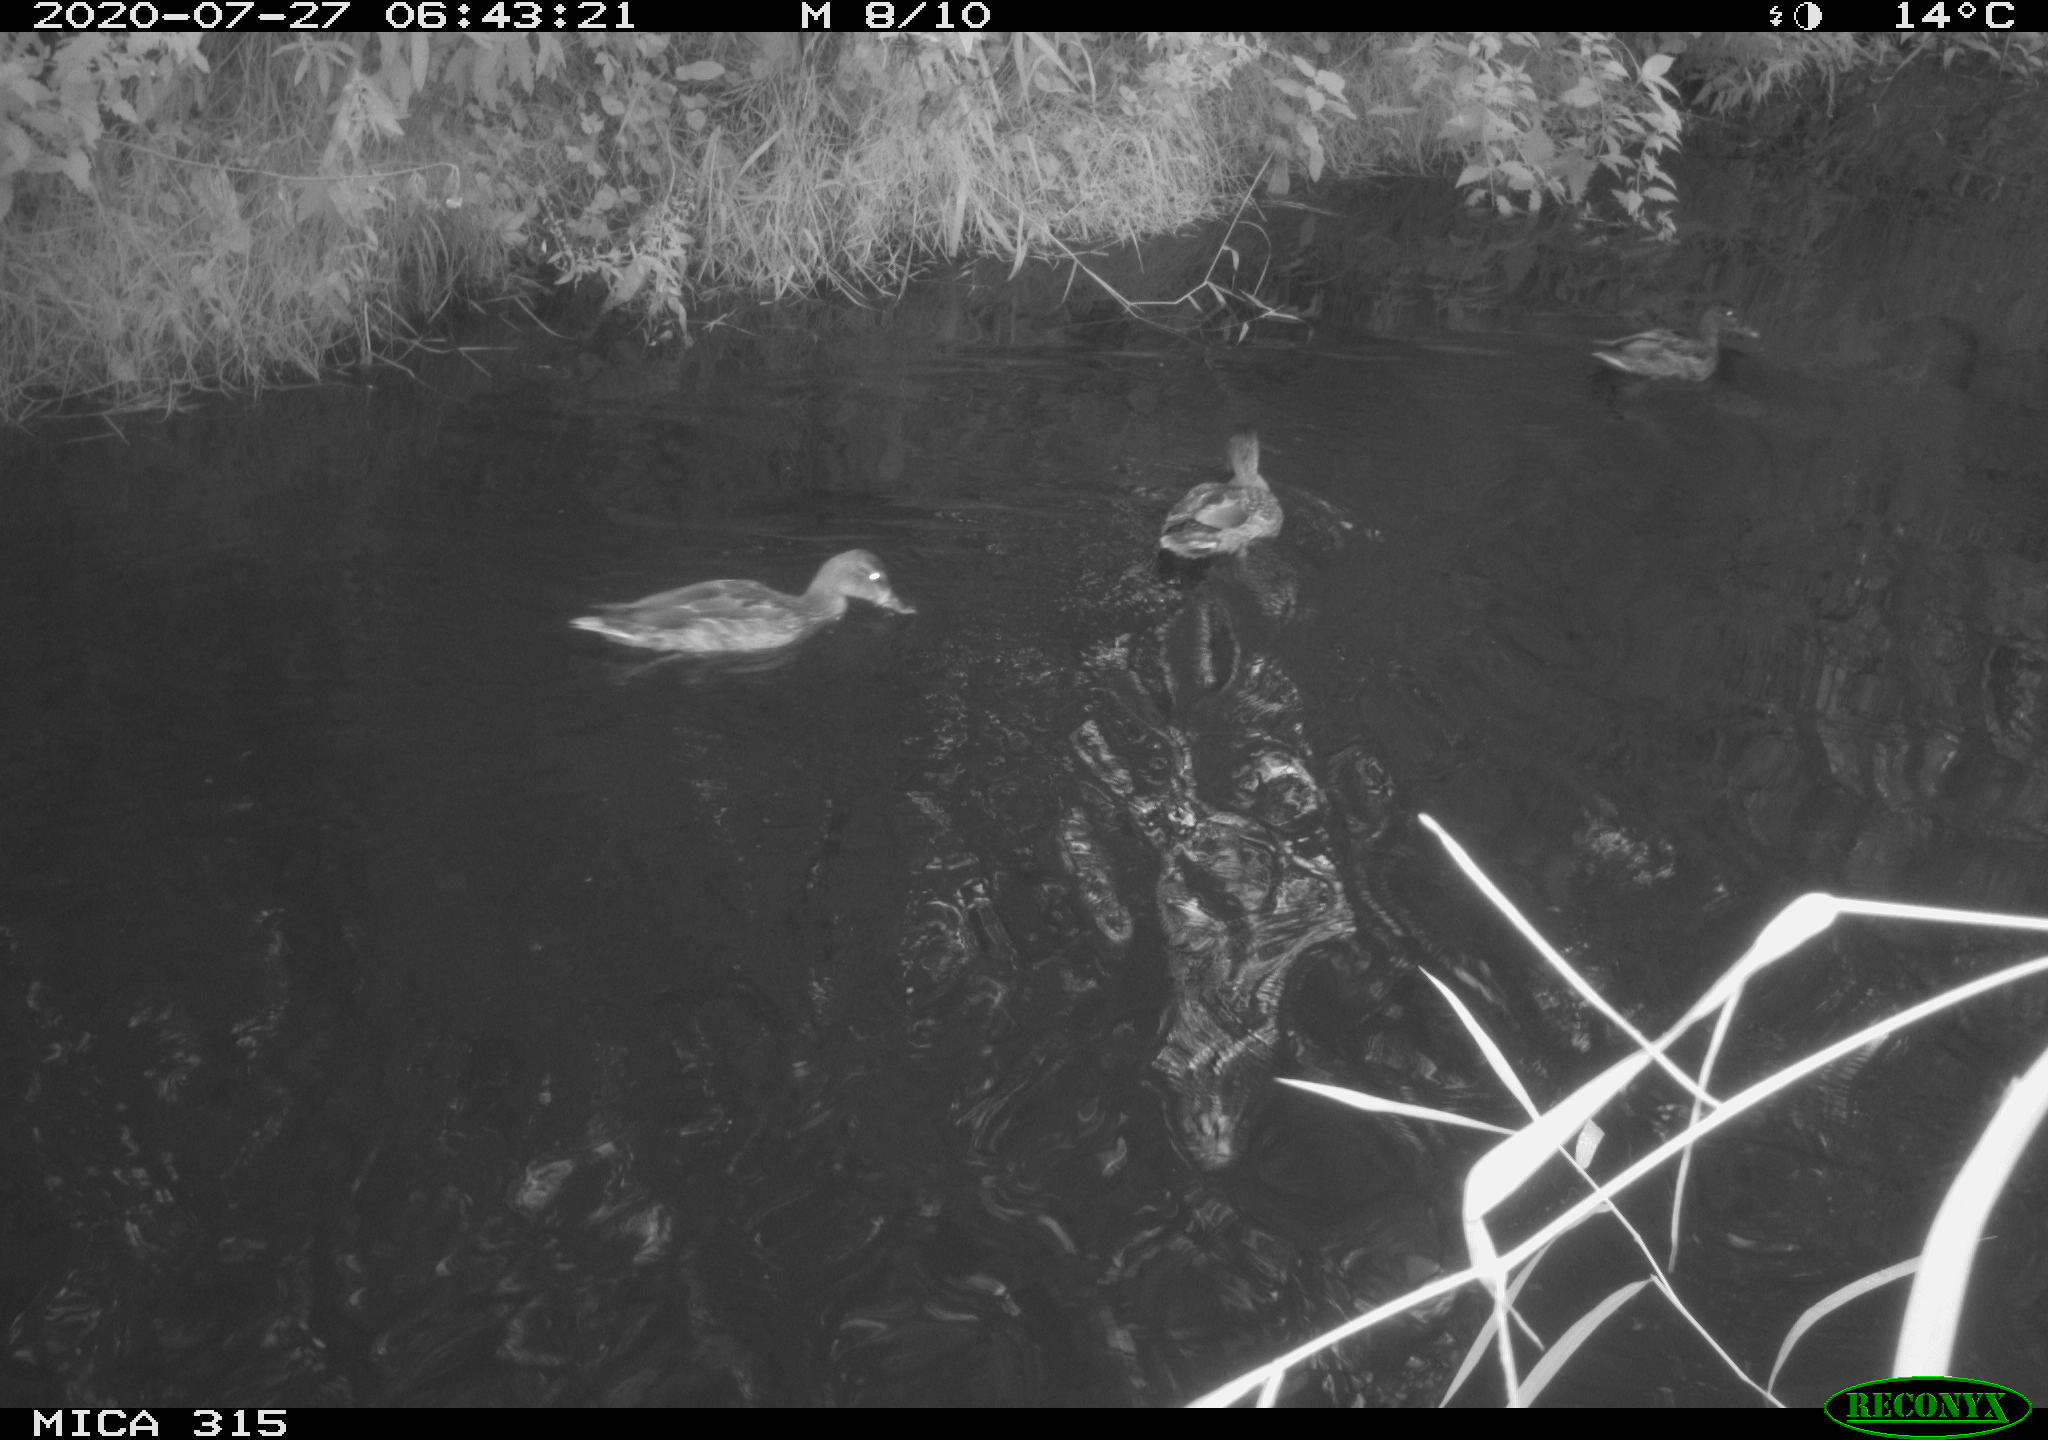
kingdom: Animalia
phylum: Chordata
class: Aves
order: Anseriformes
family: Anatidae
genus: Anas
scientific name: Anas platyrhynchos
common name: Mallard
